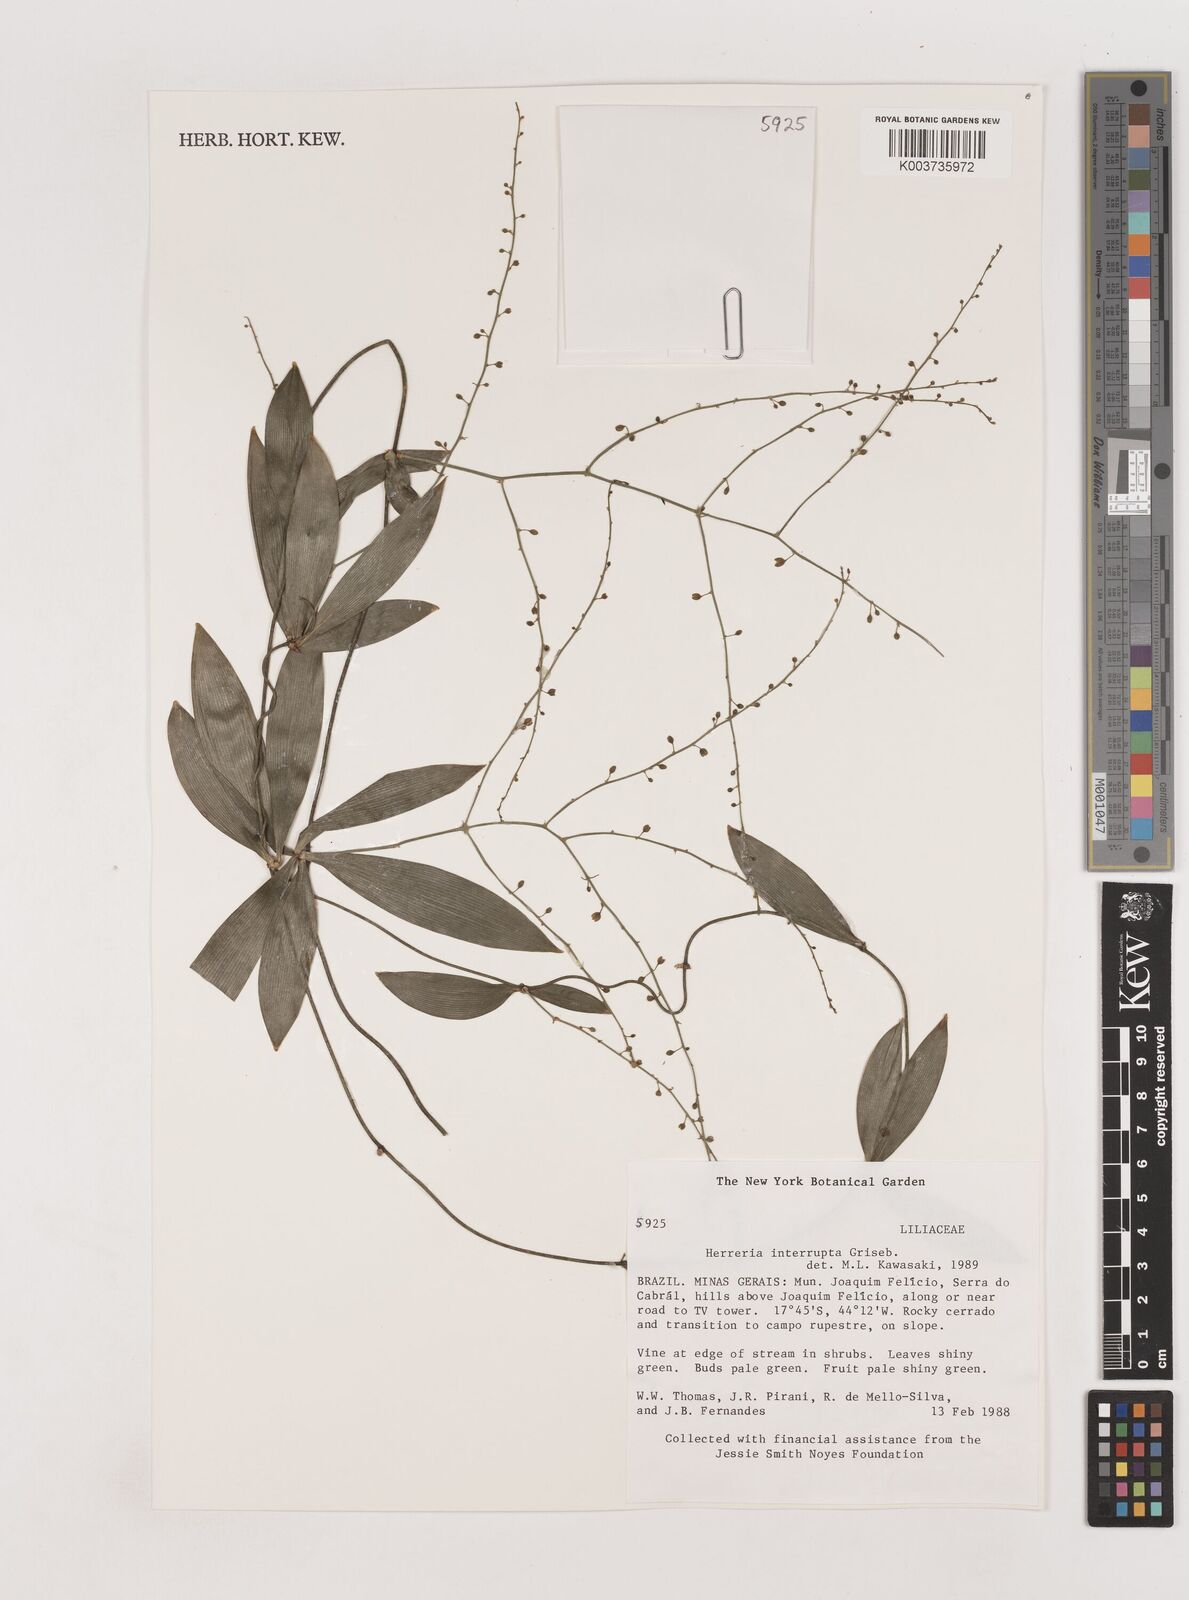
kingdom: Plantae
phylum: Tracheophyta
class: Liliopsida
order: Asparagales
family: Asparagaceae
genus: Herreria
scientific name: Herreria salsaparilha
